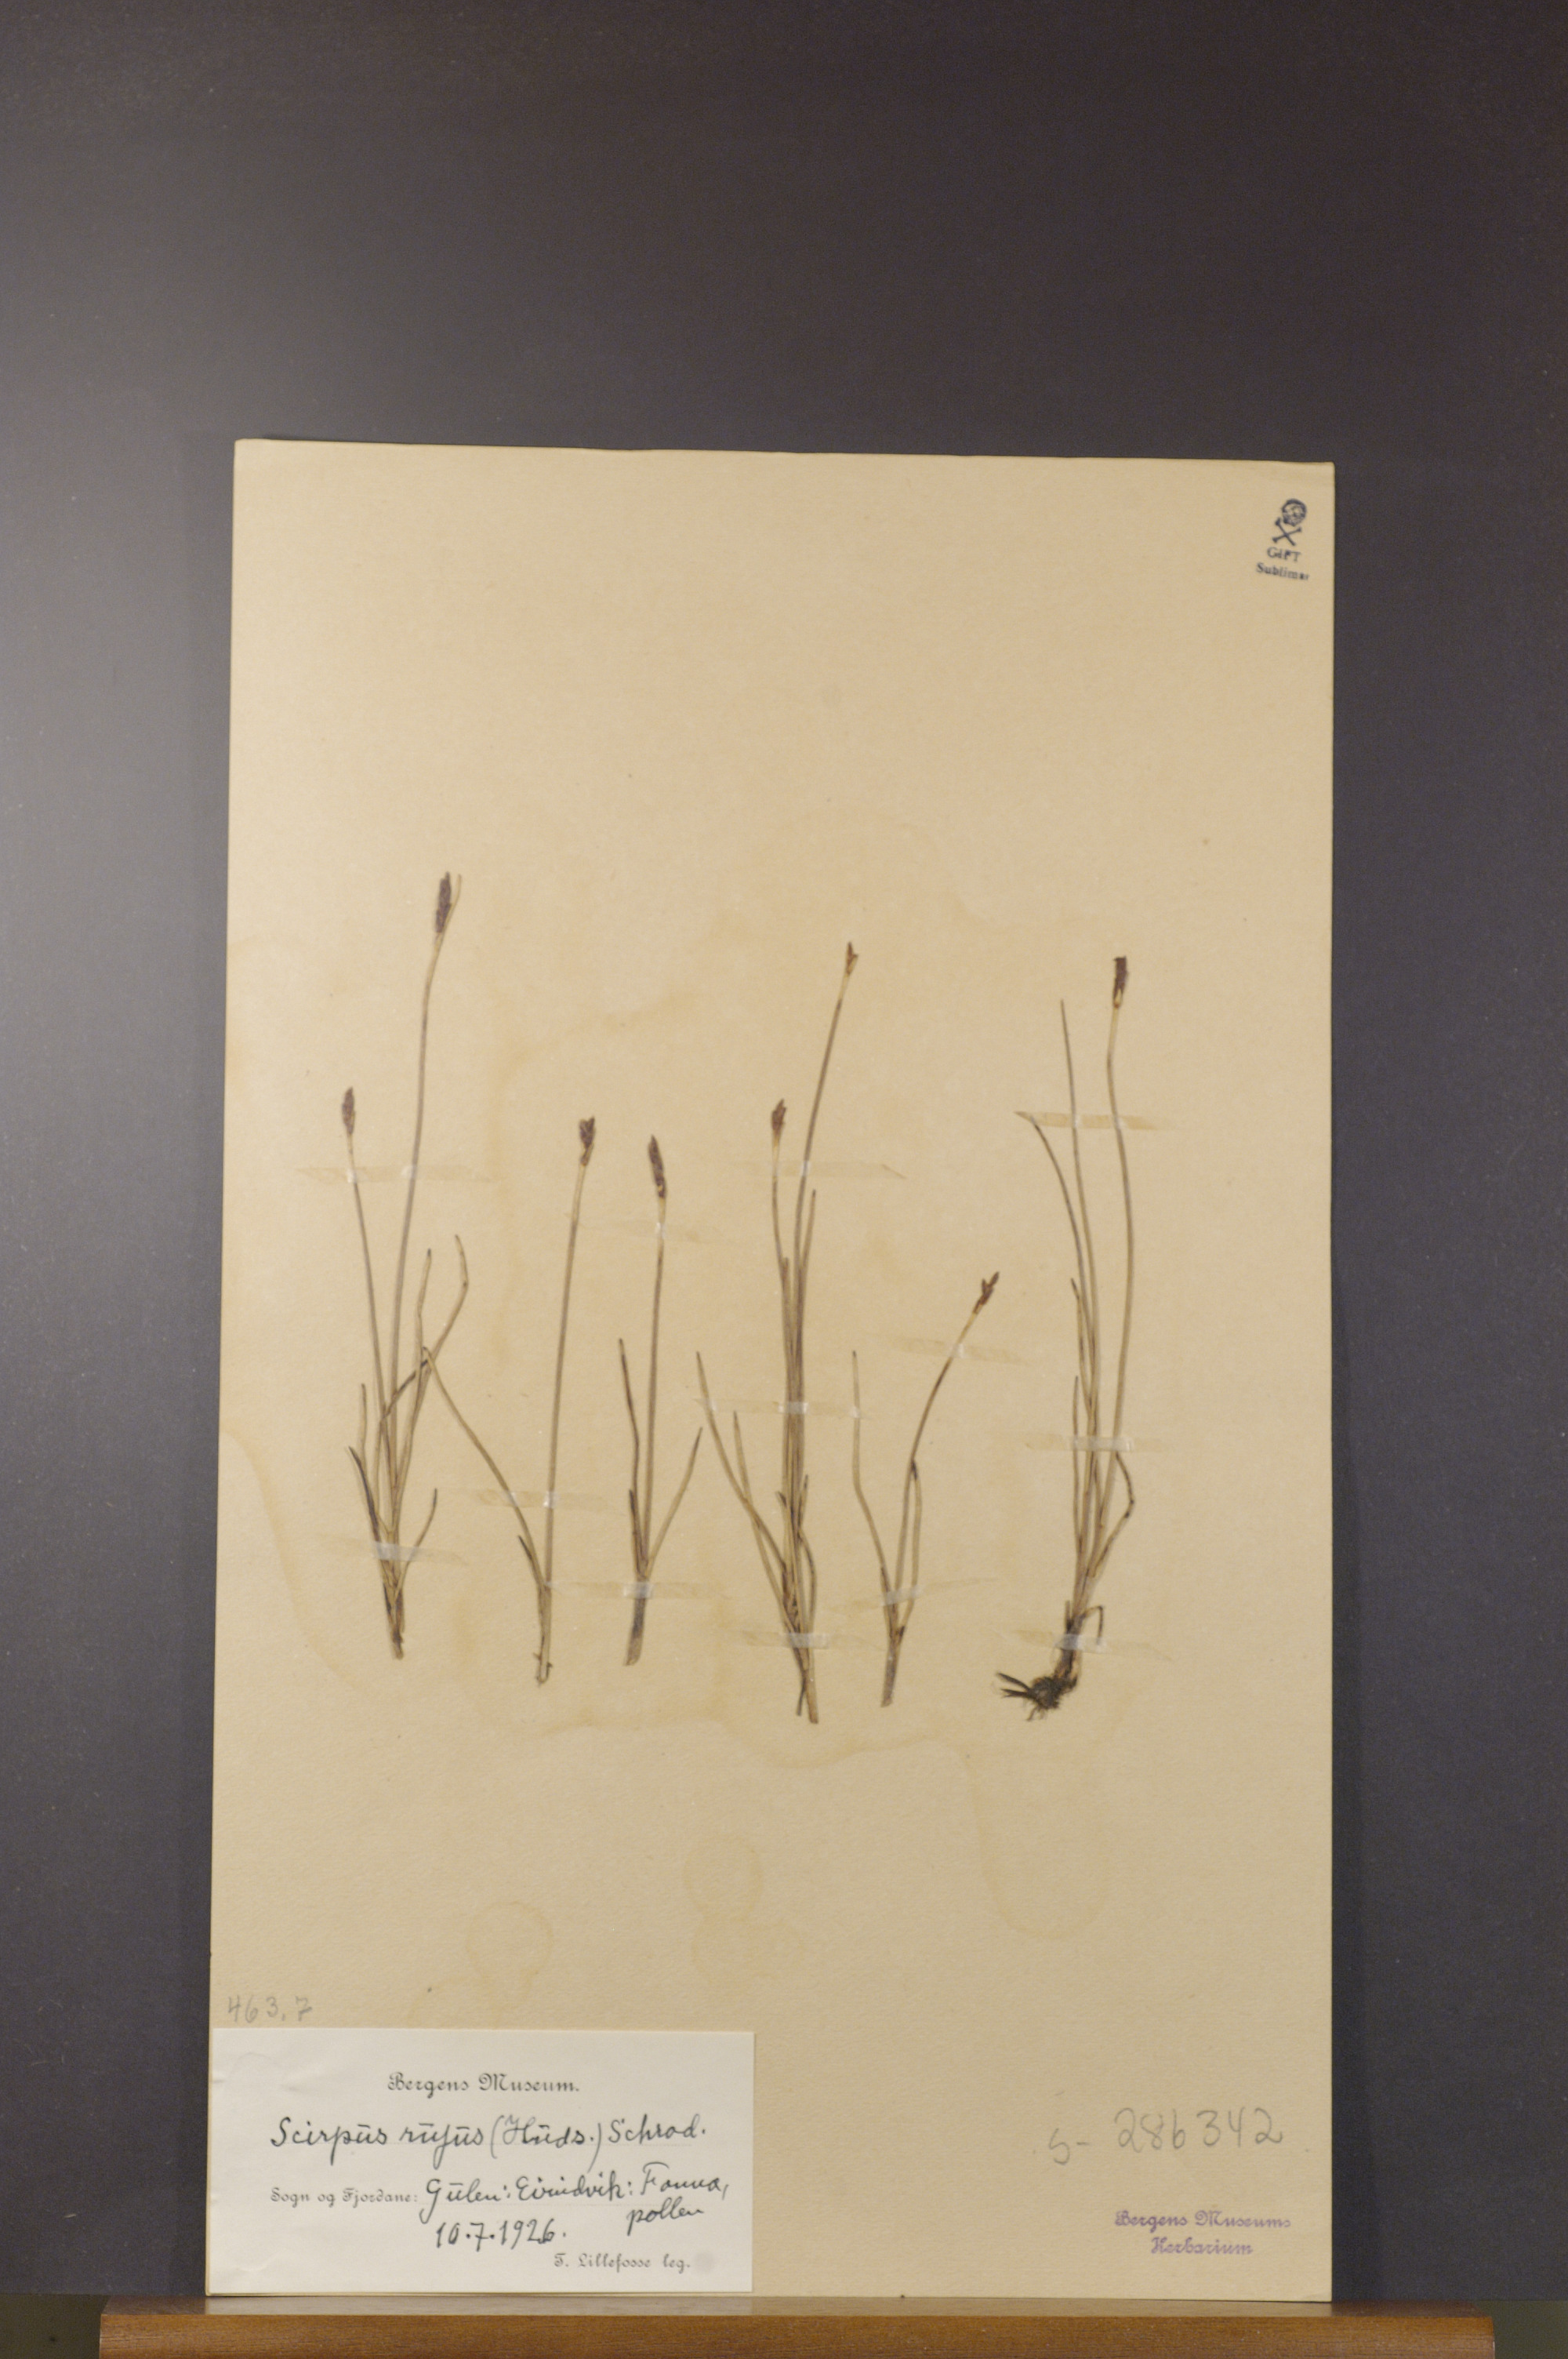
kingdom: Plantae
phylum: Tracheophyta
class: Liliopsida
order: Poales
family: Cyperaceae
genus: Blysmus
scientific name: Blysmus rufus
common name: Saltmarsh flat-sedge
